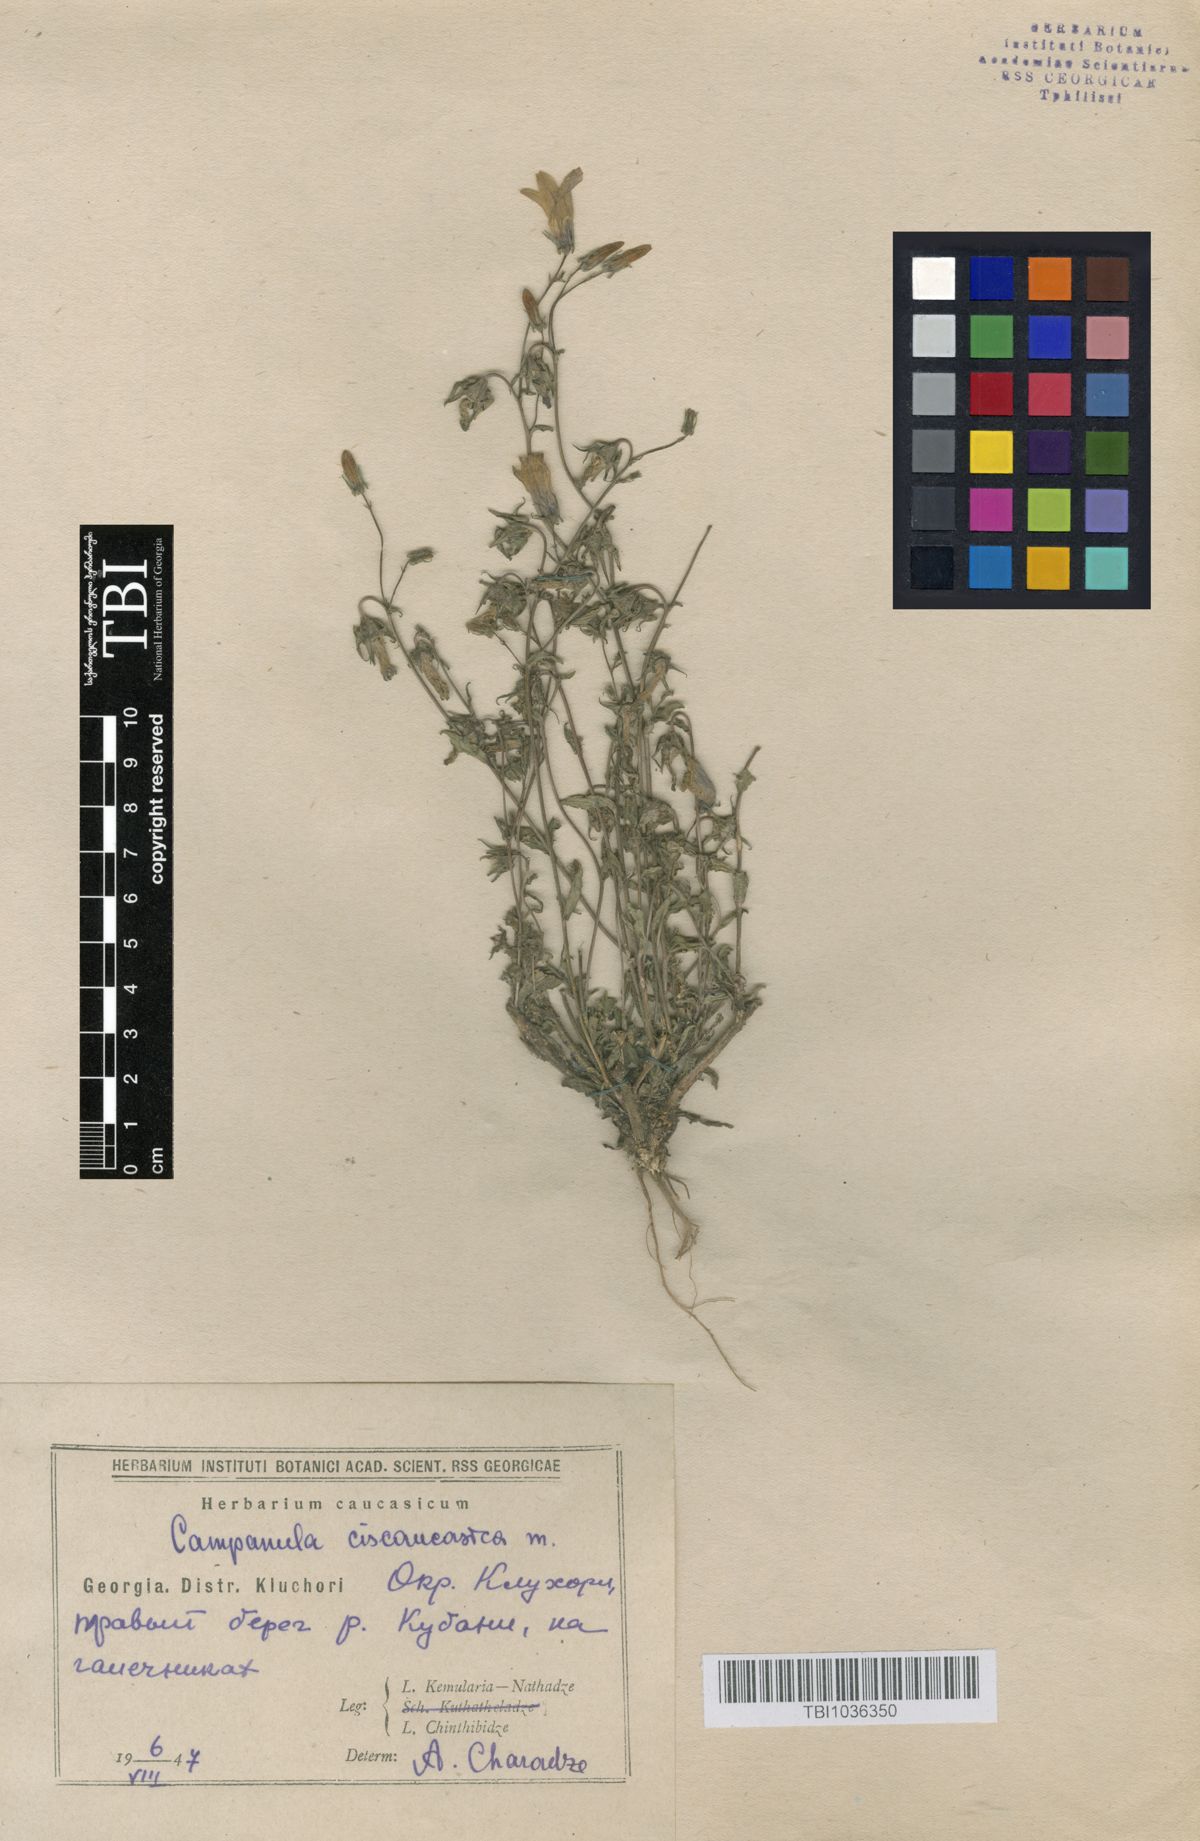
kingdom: Plantae
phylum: Tracheophyta
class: Magnoliopsida
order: Asterales
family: Campanulaceae
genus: Campanula
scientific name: Campanula sibirica
